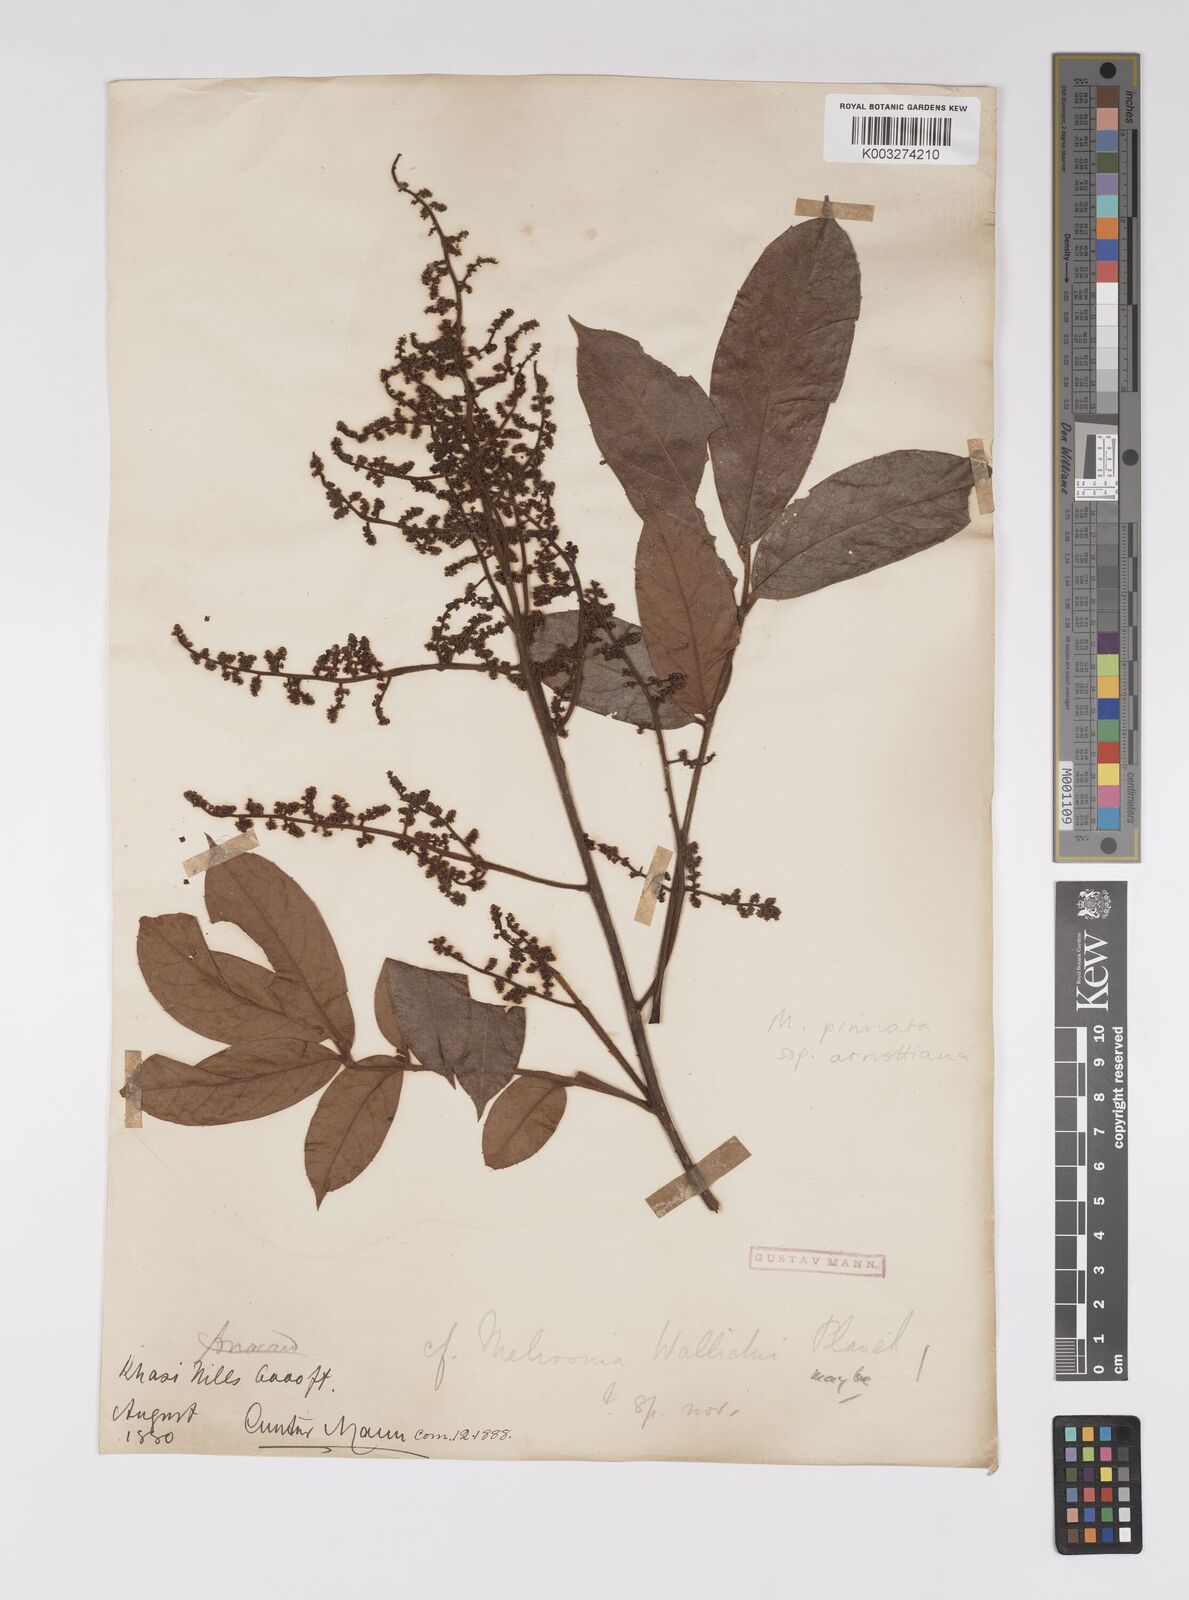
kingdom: Plantae
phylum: Tracheophyta
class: Magnoliopsida
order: Proteales
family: Sabiaceae
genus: Meliosma
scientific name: Meliosma rhoifolia
